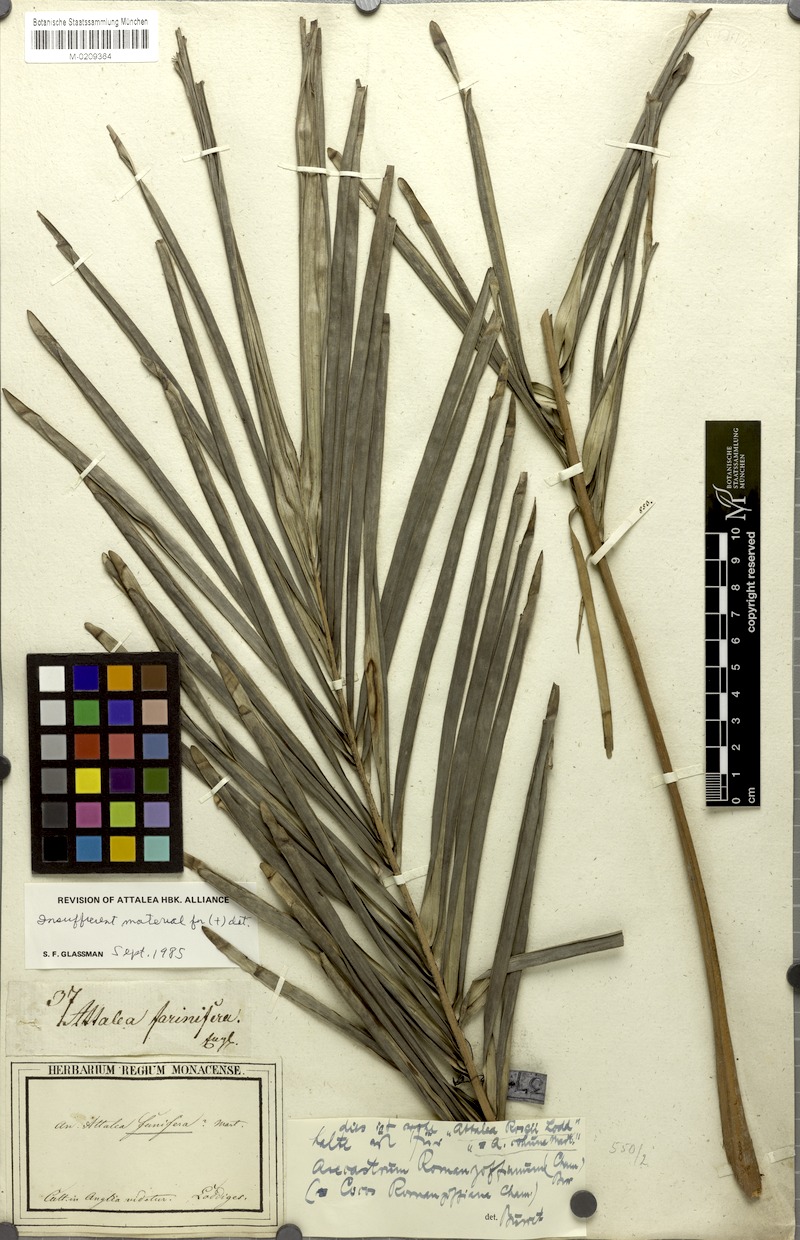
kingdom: Plantae
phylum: Tracheophyta
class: Liliopsida
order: Arecales
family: Arecaceae
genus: Attalea
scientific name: Attalea funifera
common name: Piassava palm
